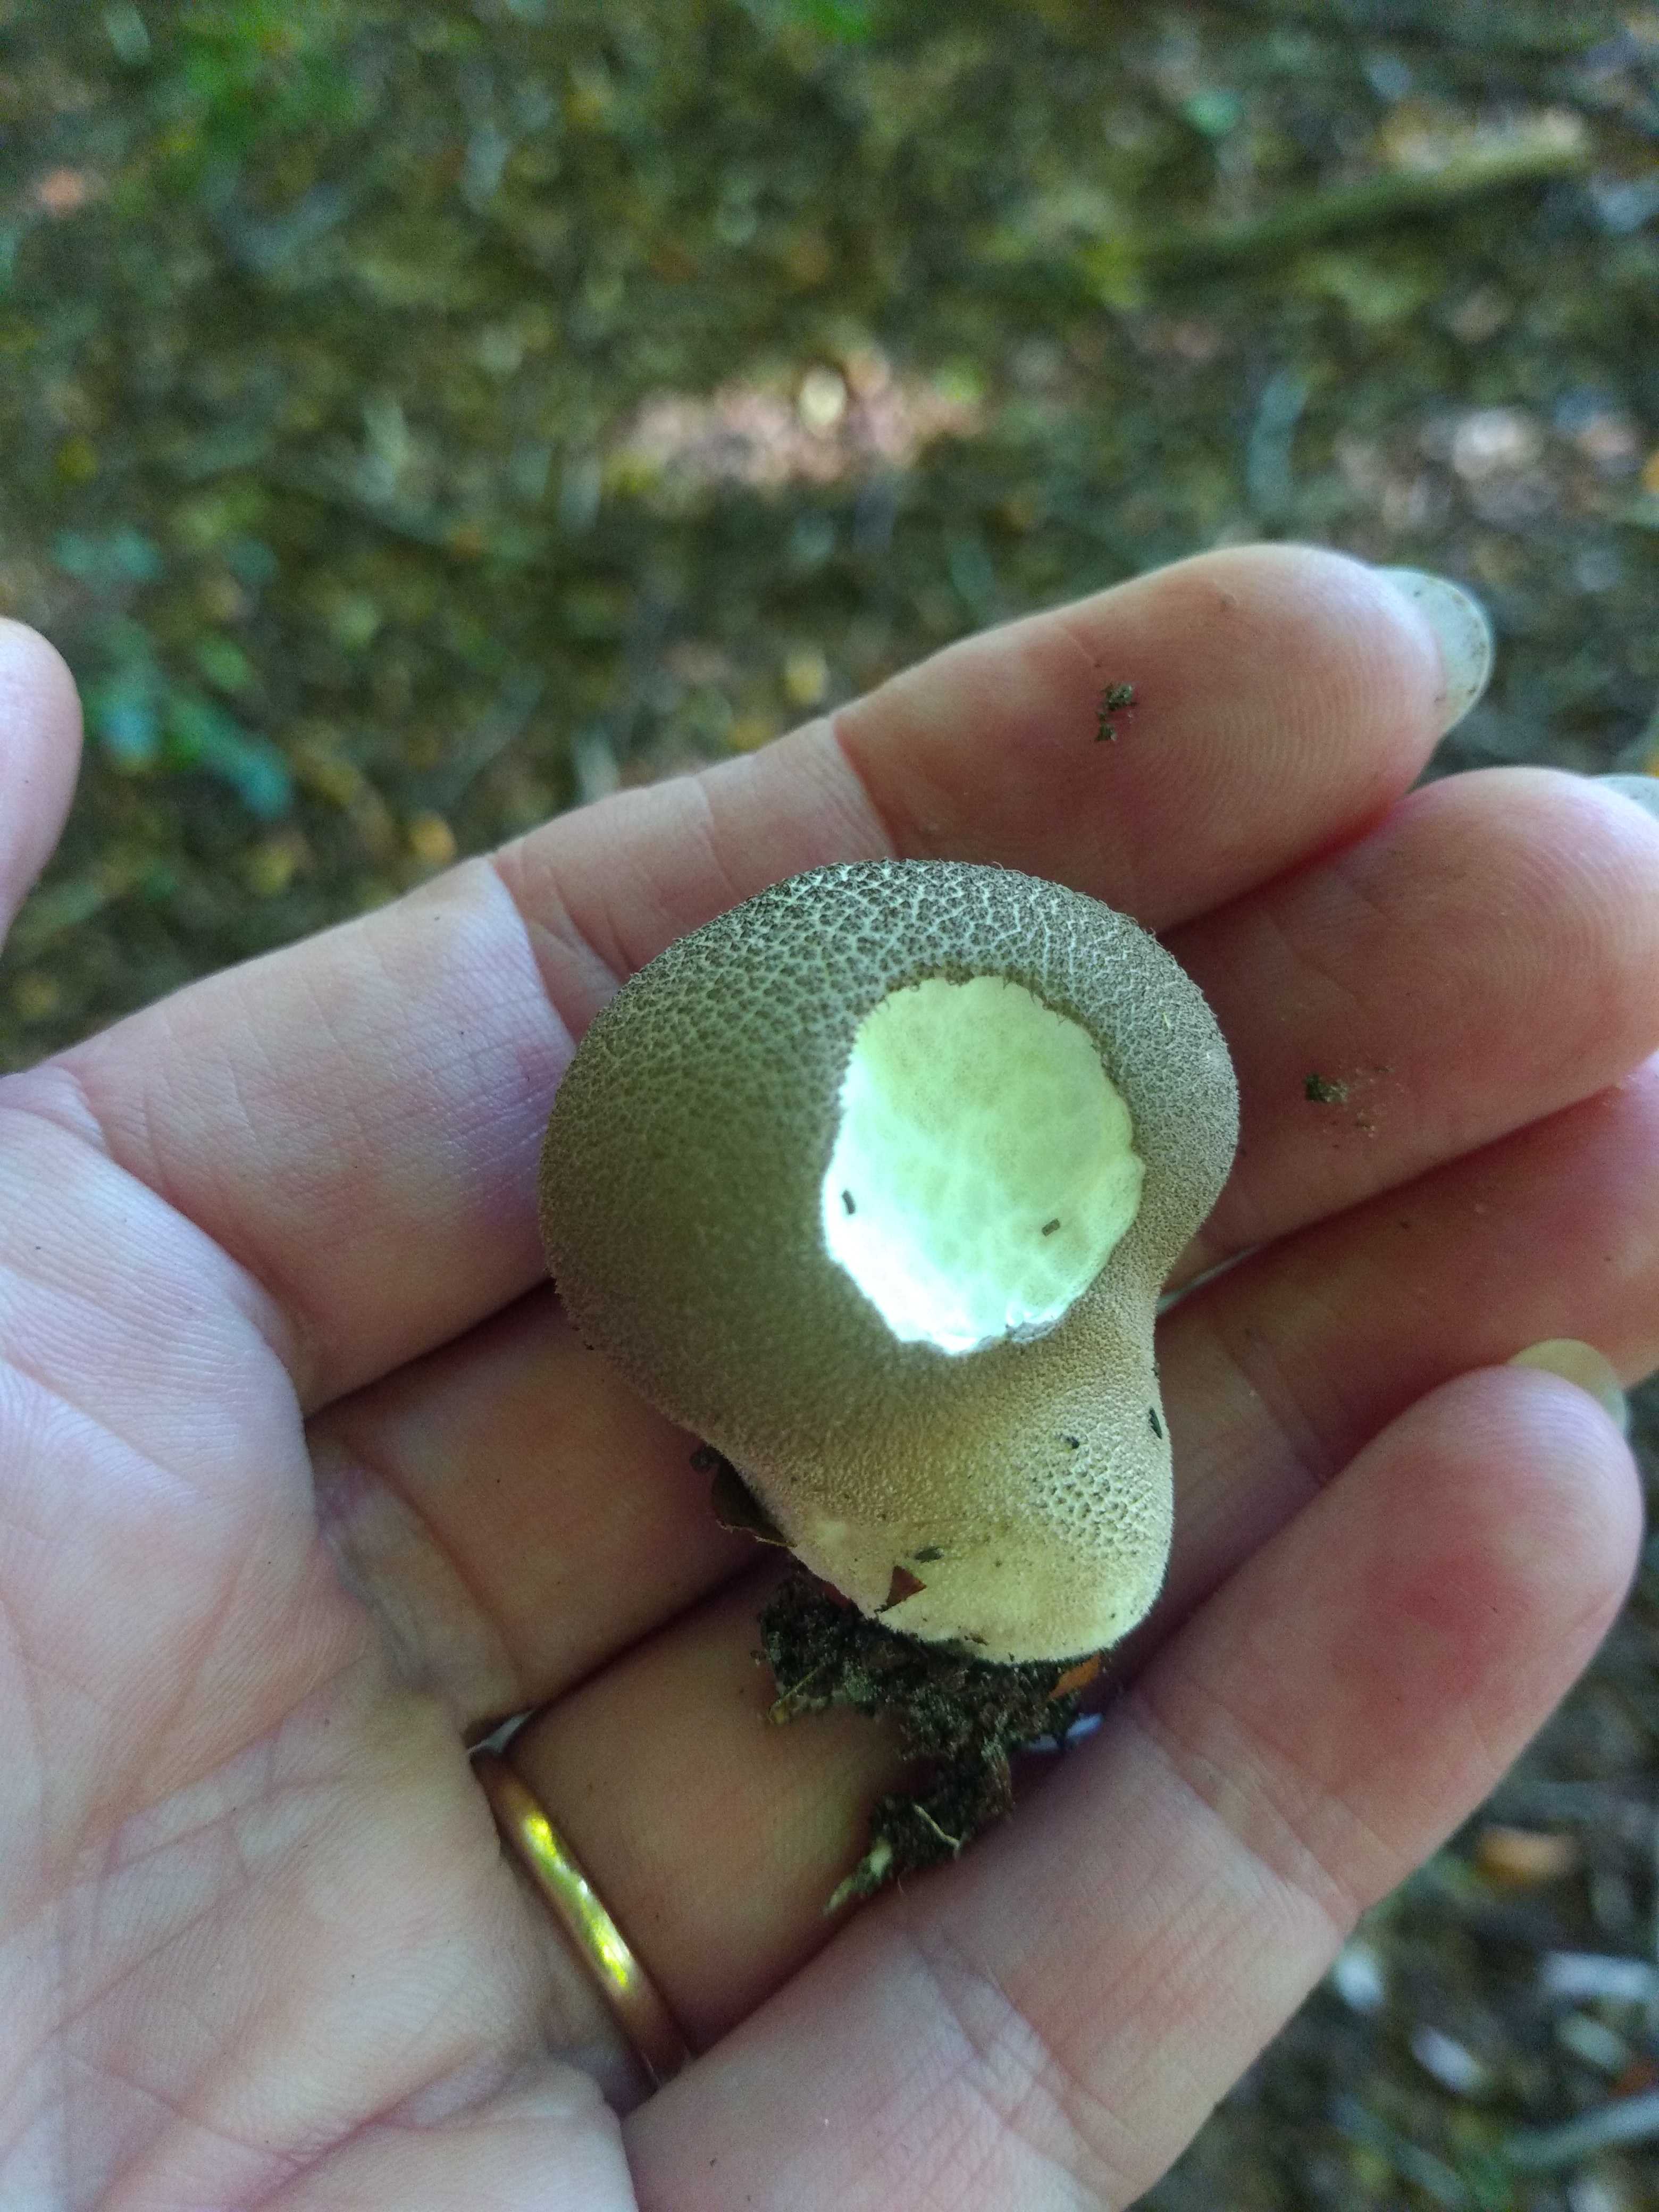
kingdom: Fungi
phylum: Basidiomycota
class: Agaricomycetes
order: Agaricales
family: Agaricaceae
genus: Lycoperdon
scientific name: Lycoperdon
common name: støvbold
